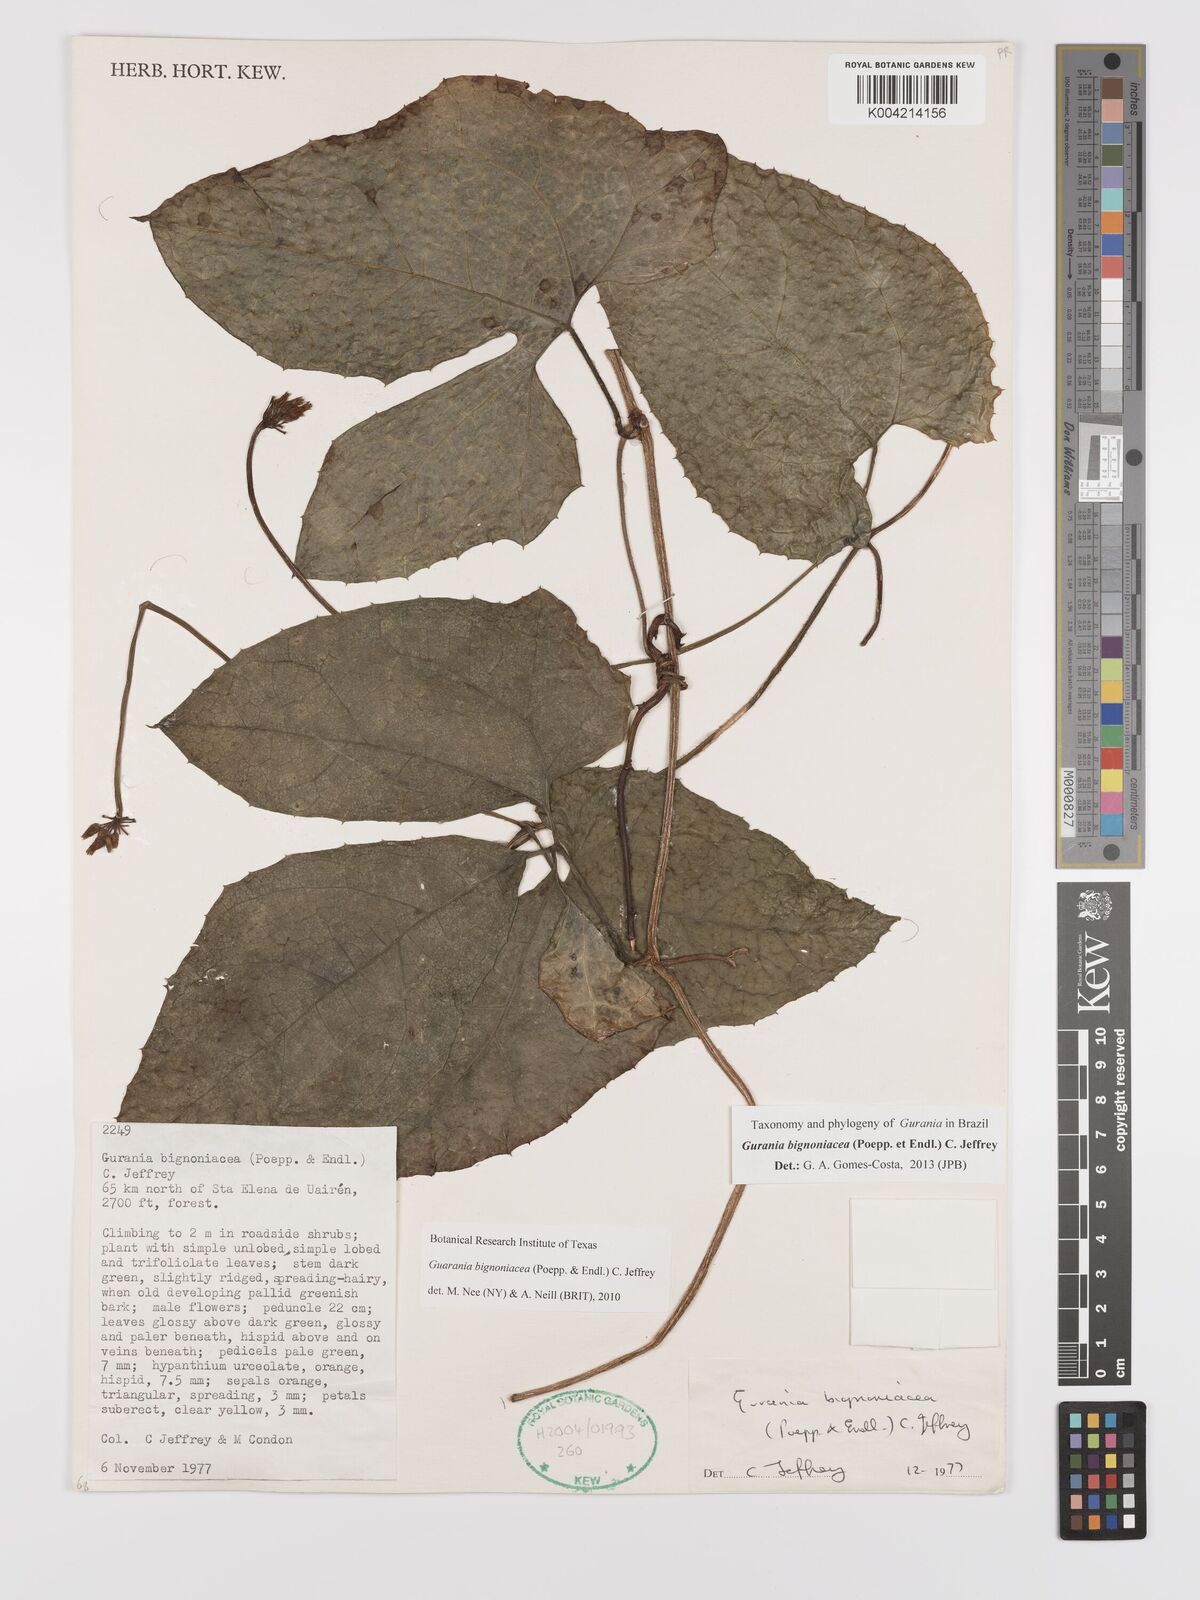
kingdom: Plantae
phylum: Tracheophyta
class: Magnoliopsida
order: Cucurbitales
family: Cucurbitaceae
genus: Gurania
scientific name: Gurania bignoniacea
